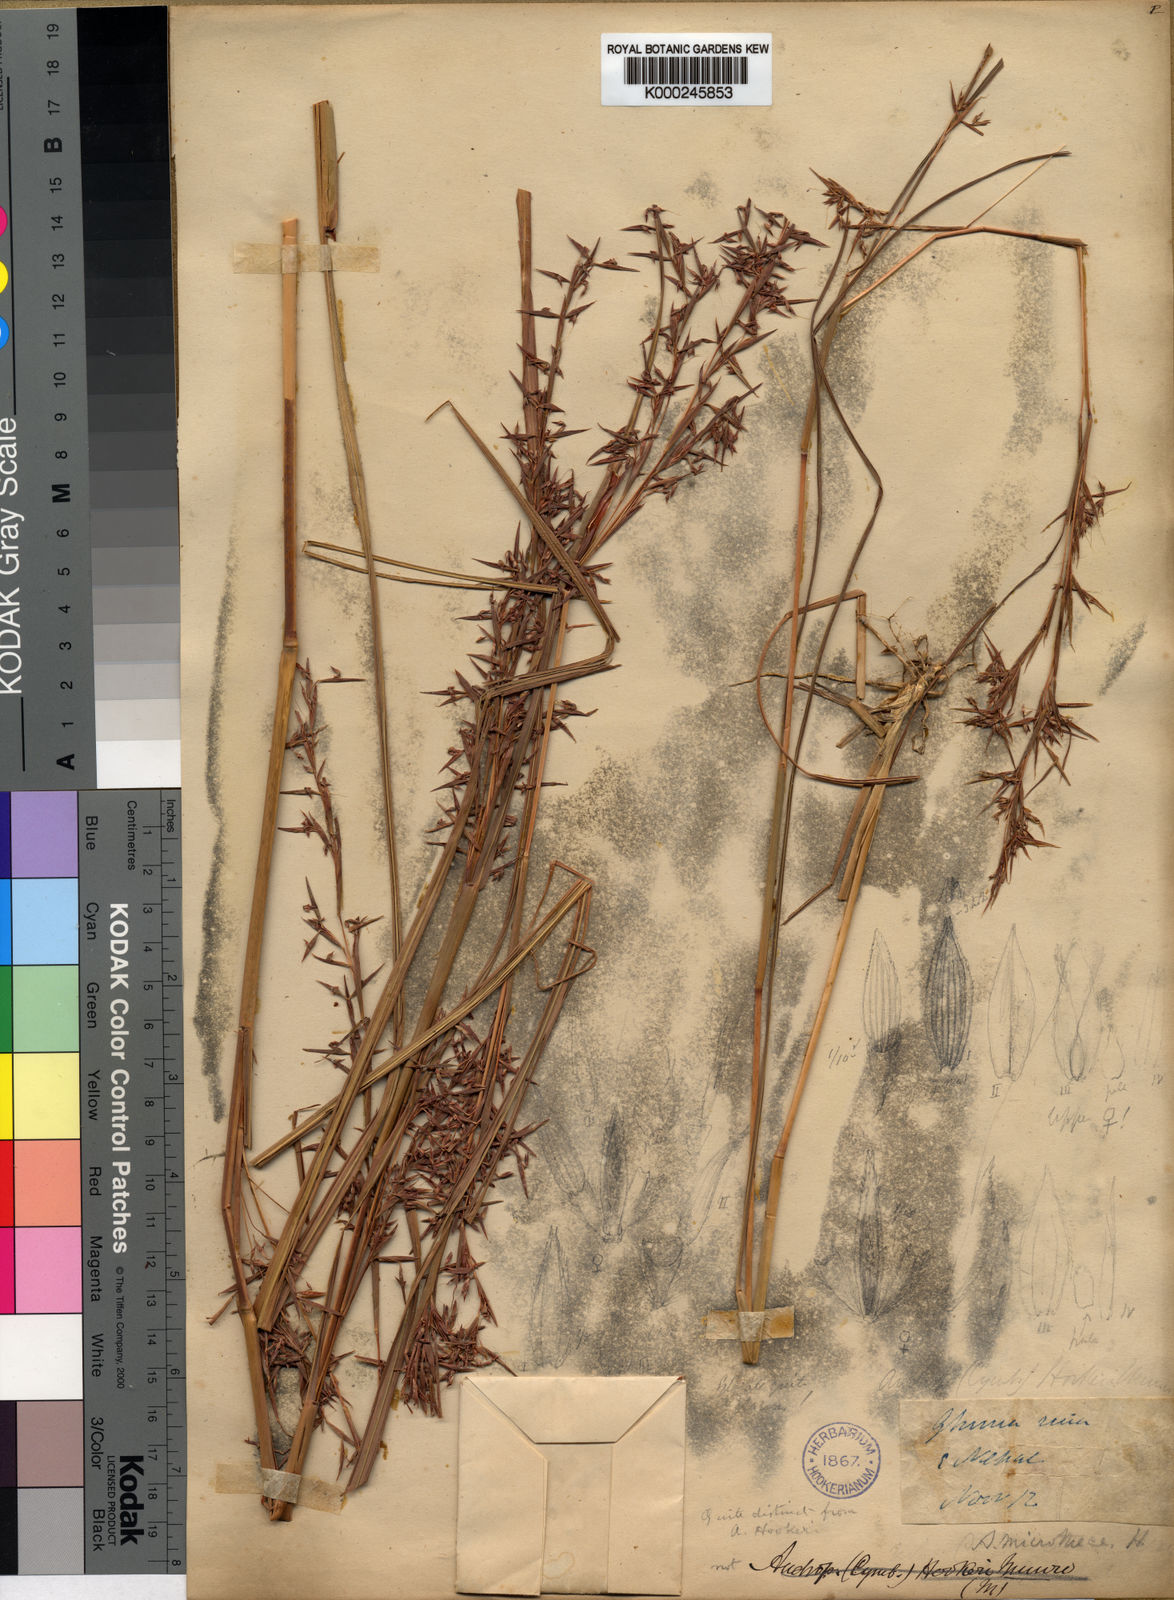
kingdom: Plantae
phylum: Tracheophyta
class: Liliopsida
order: Poales
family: Poaceae
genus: Cymbopogon
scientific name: Cymbopogon microthecus
